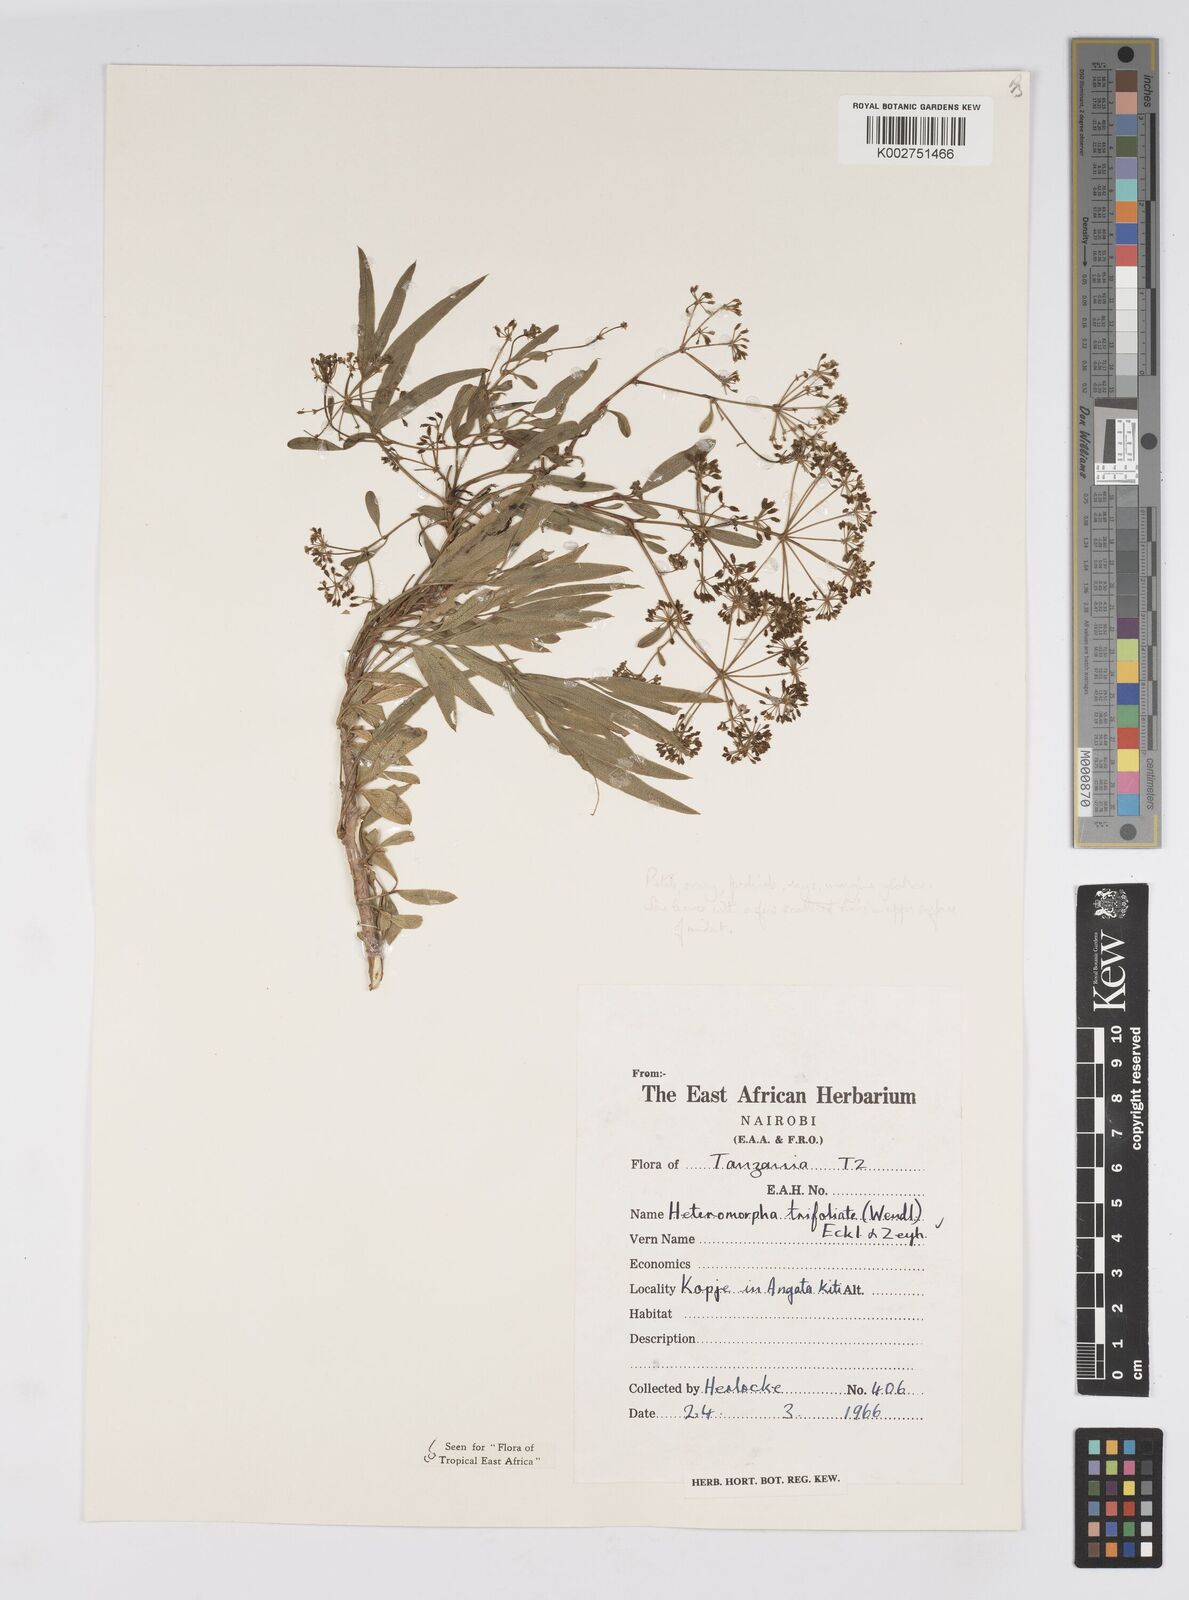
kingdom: Plantae
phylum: Tracheophyta
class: Magnoliopsida
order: Apiales
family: Apiaceae
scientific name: Apiaceae
